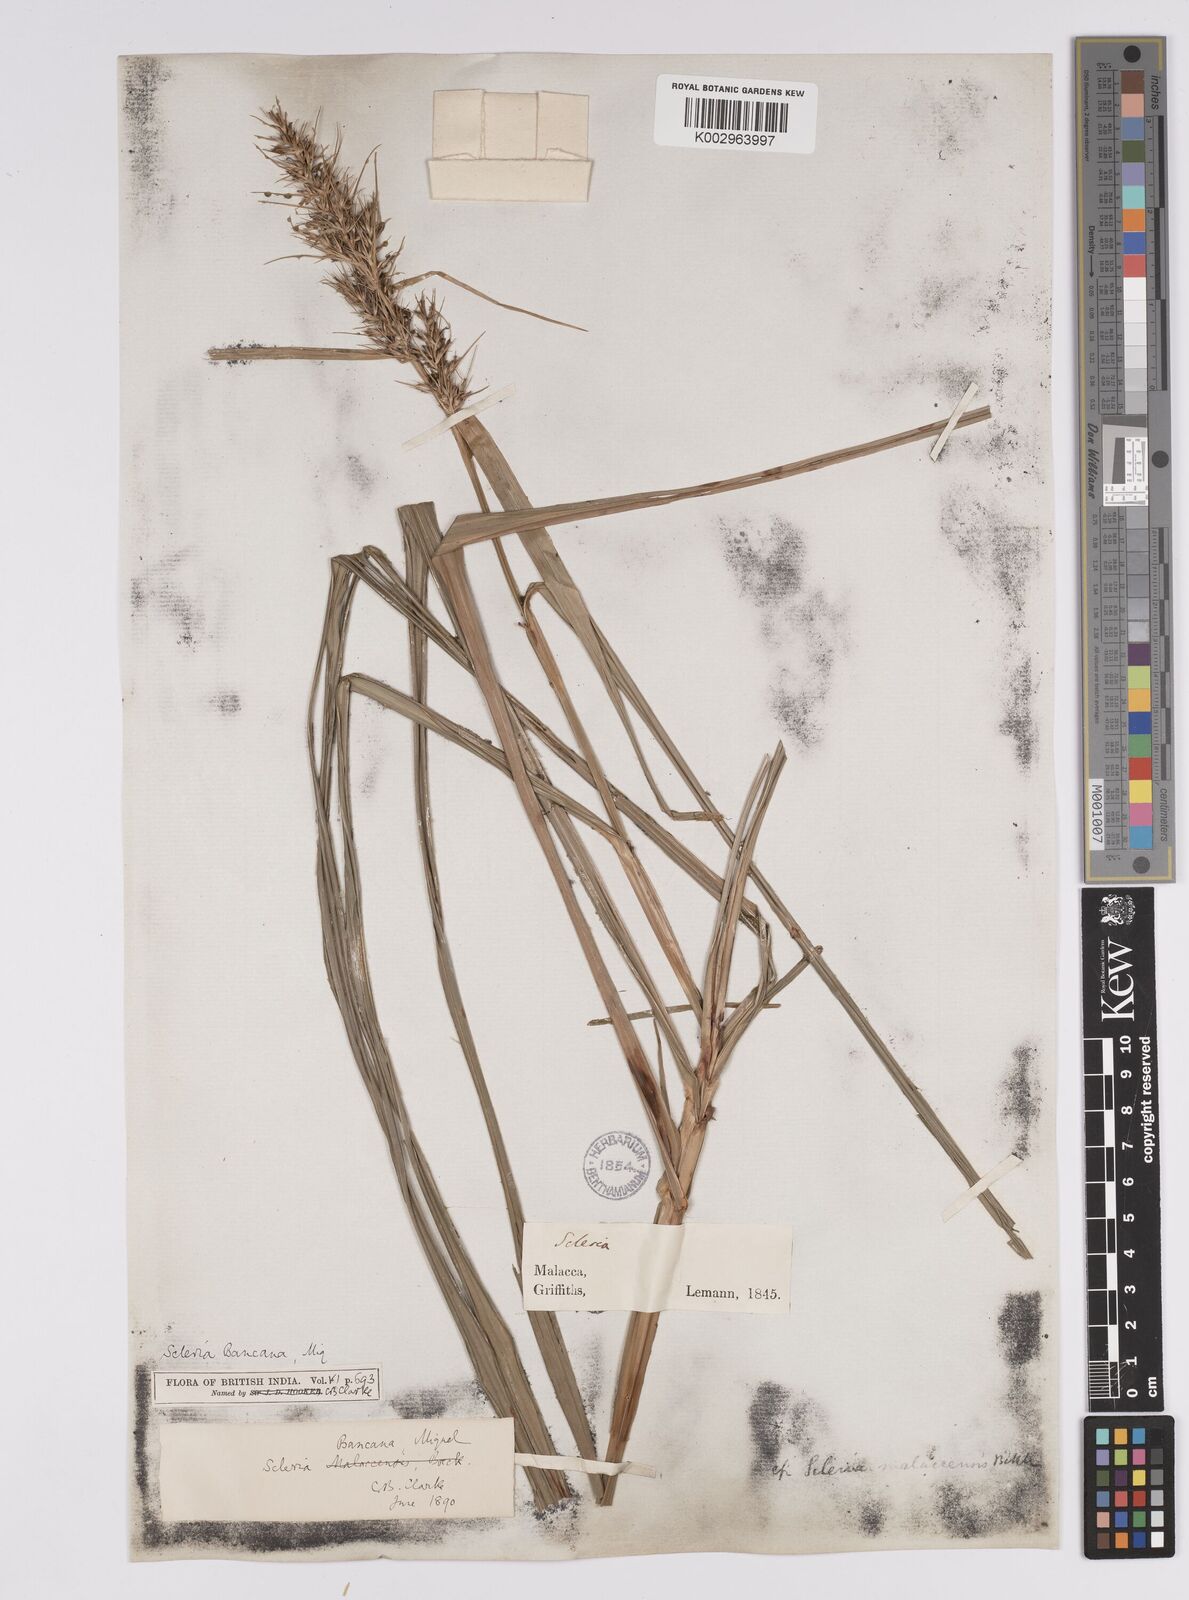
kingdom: Plantae
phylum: Tracheophyta
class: Liliopsida
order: Poales
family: Cyperaceae
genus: Scleria
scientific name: Scleria ciliaris
